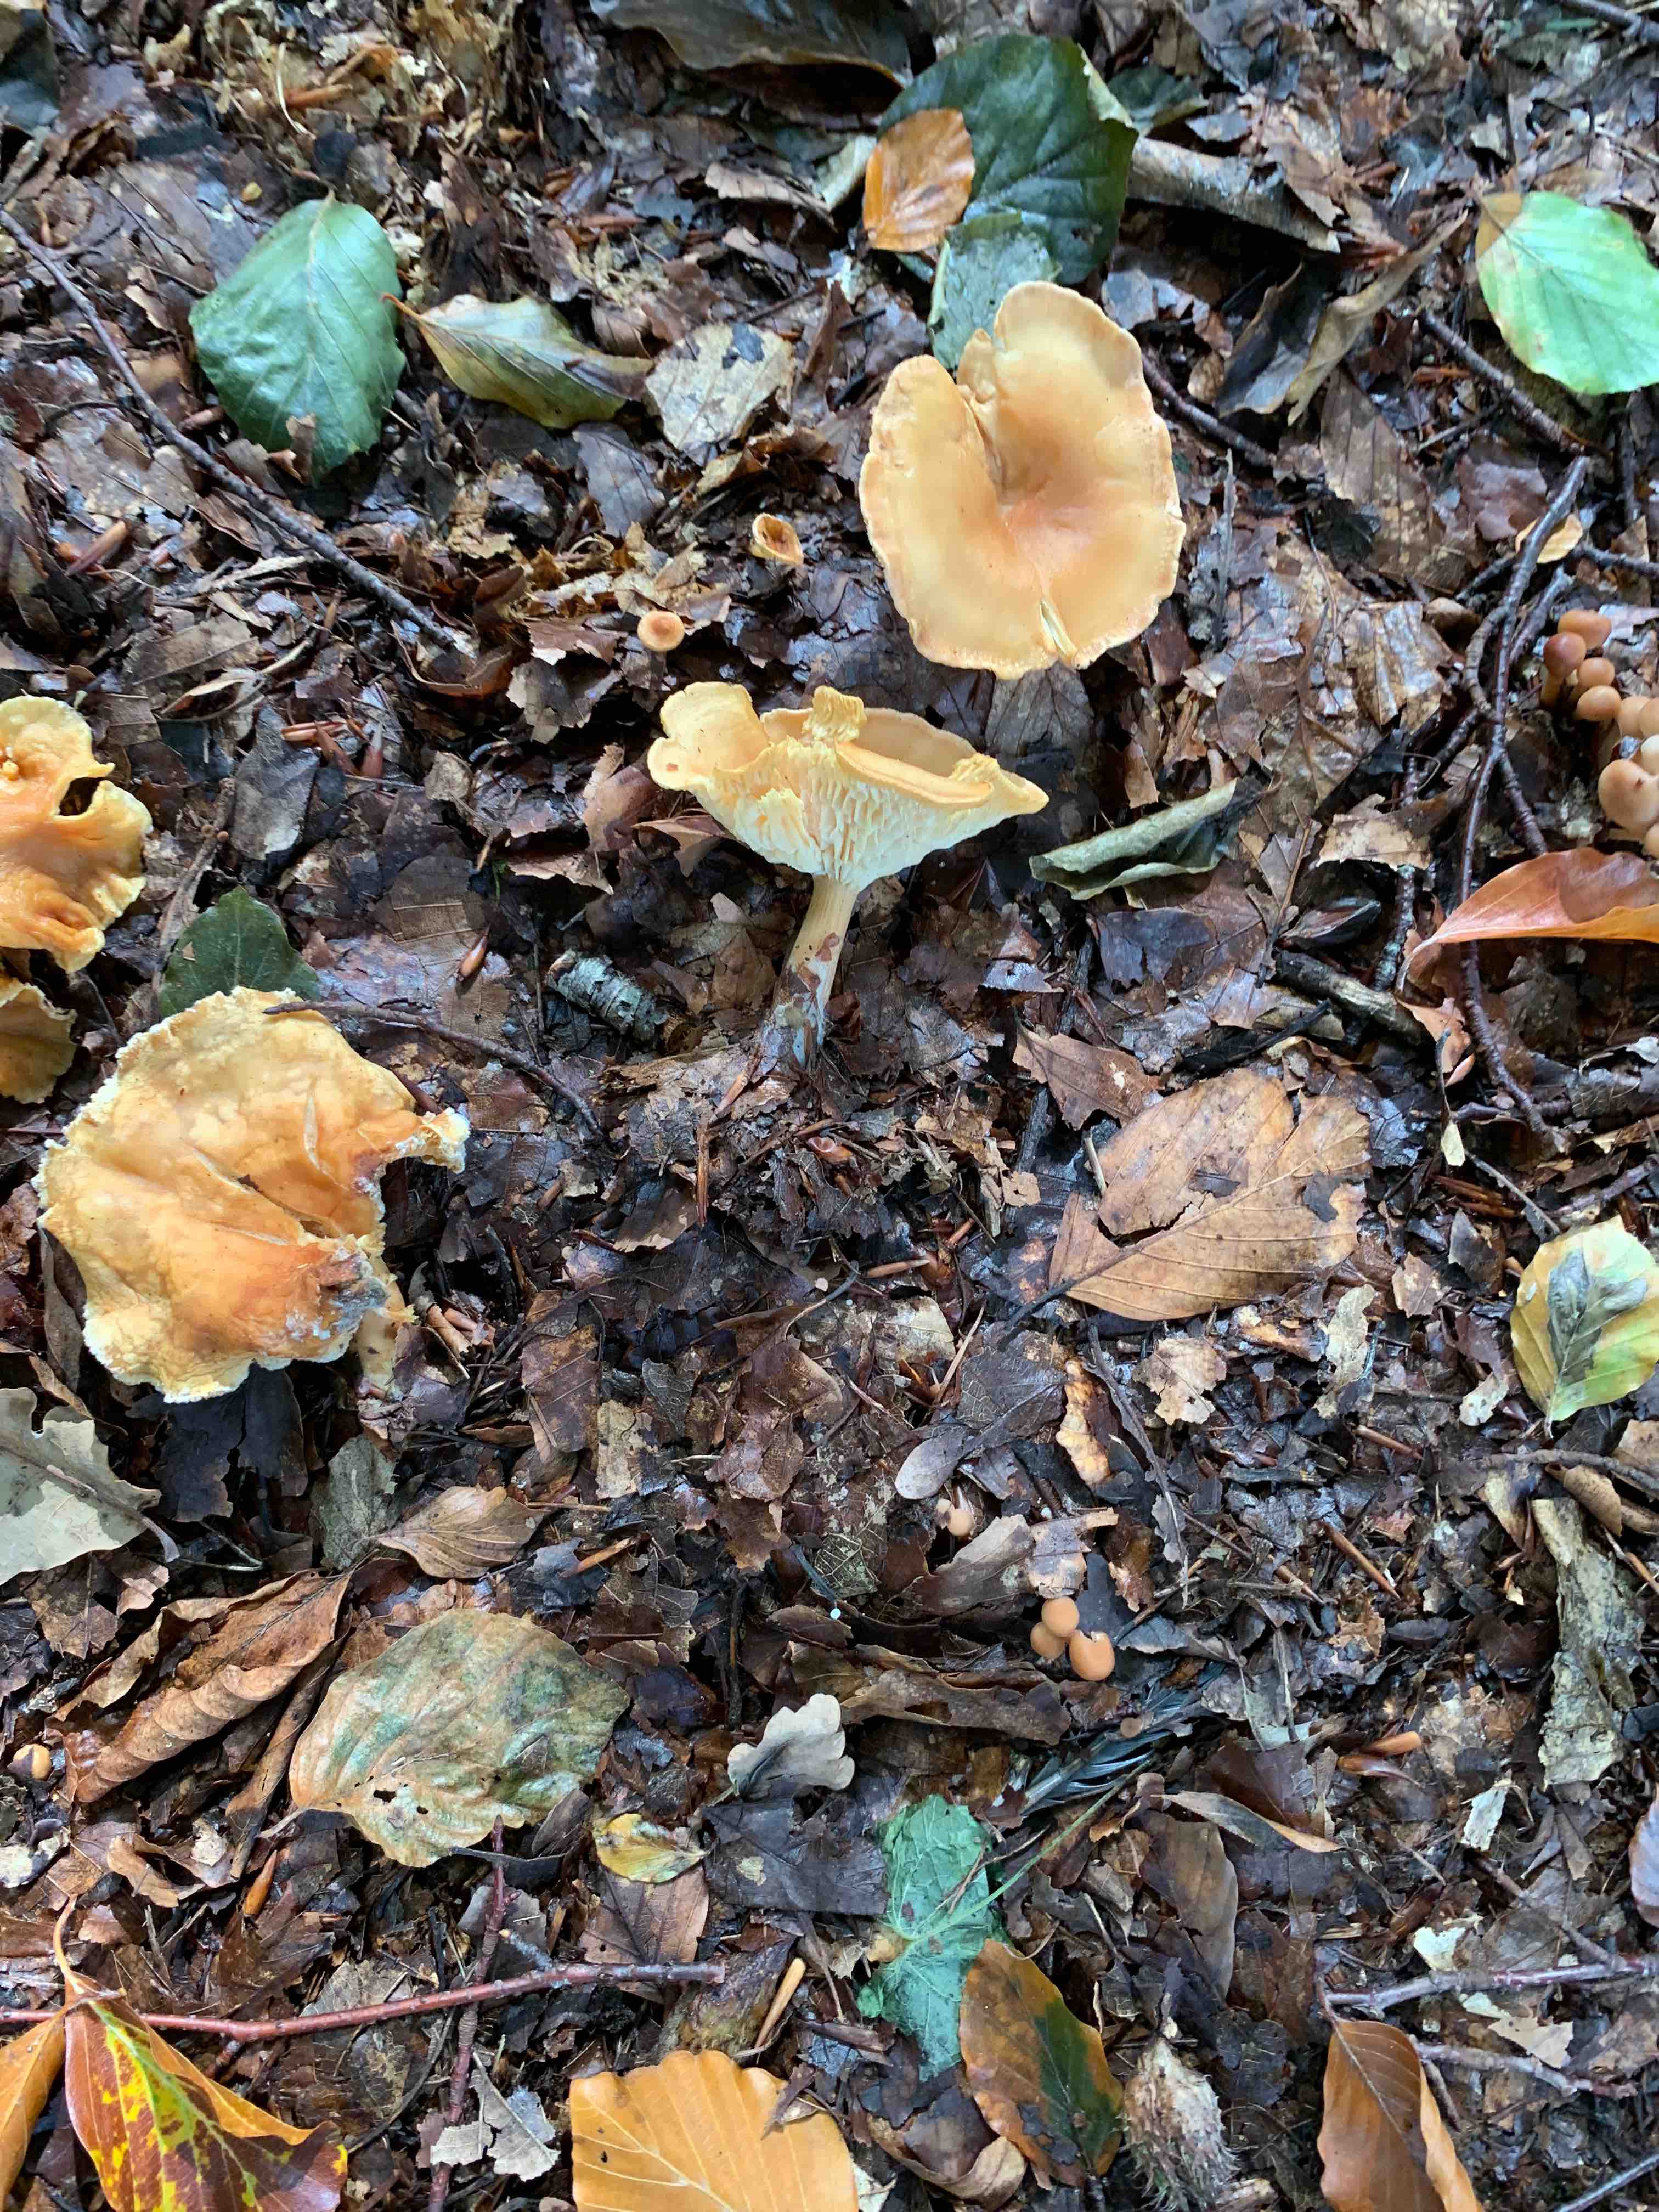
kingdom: Fungi
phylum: Basidiomycota
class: Agaricomycetes
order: Agaricales
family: Tricholomataceae
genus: Infundibulicybe
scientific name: Infundibulicybe gibba
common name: almindelig tragthat
